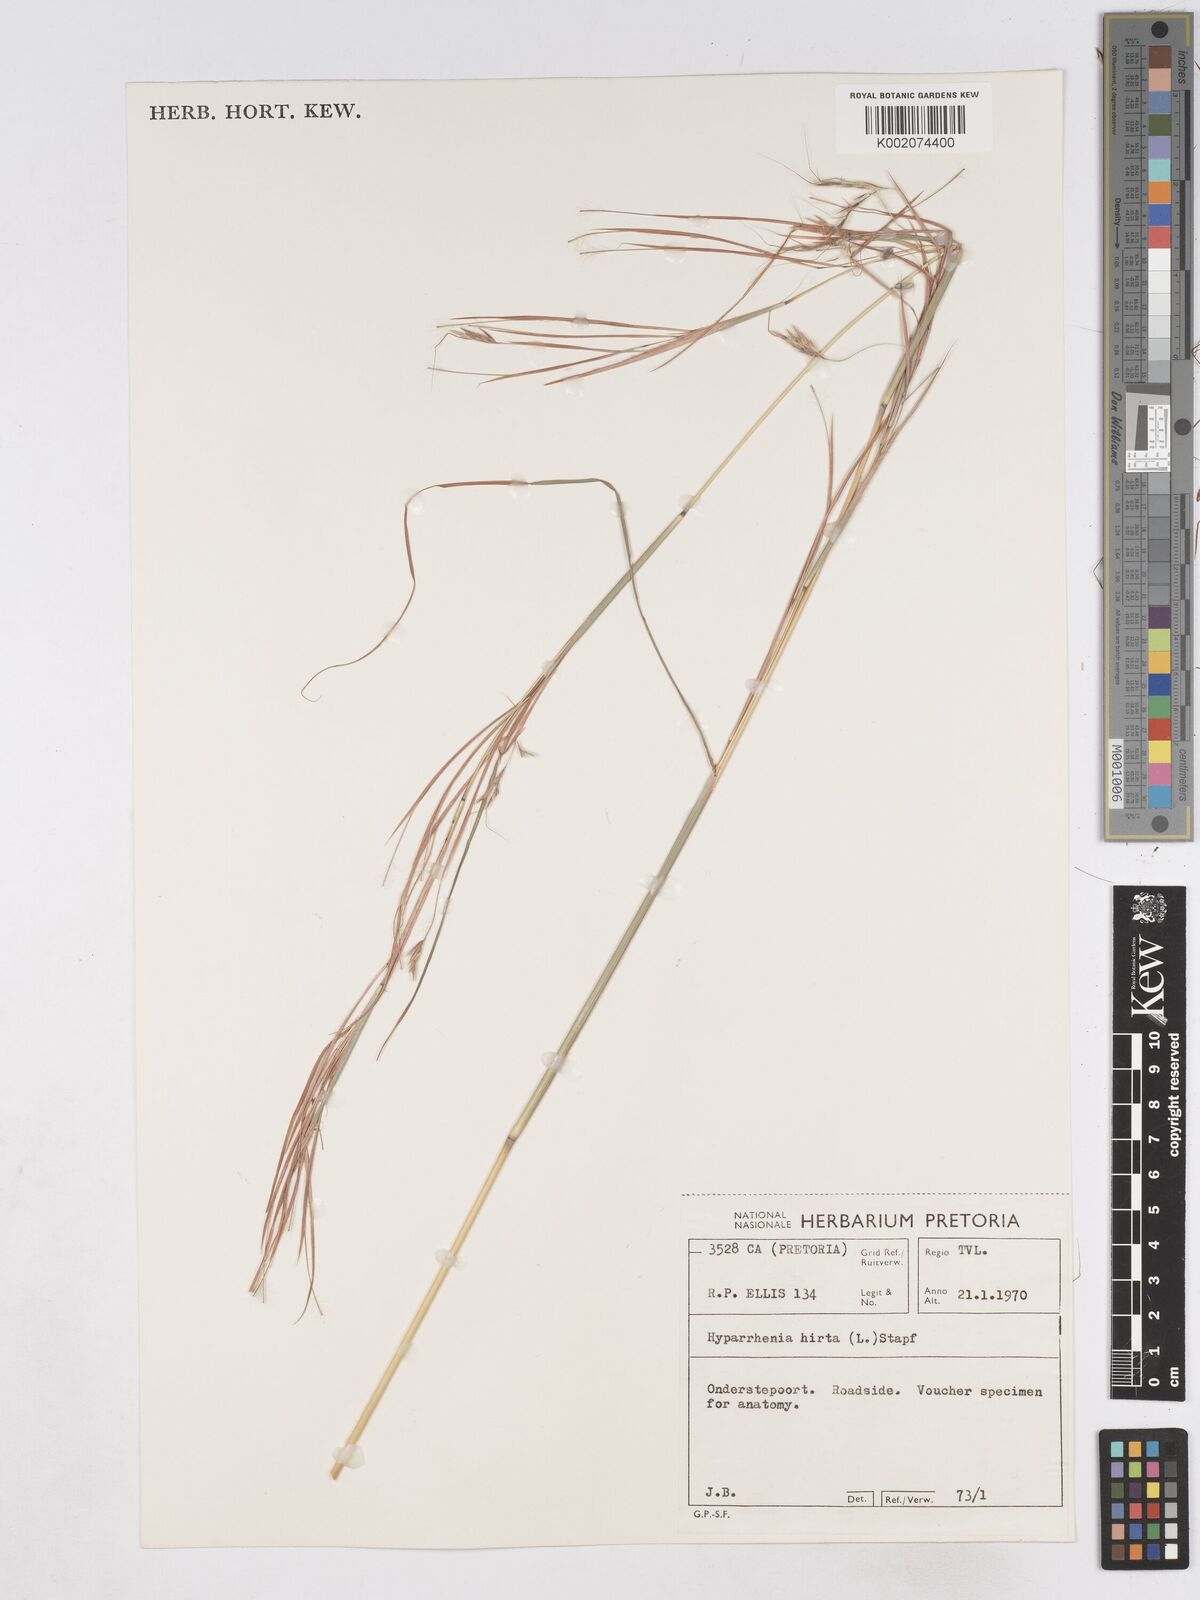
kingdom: Plantae
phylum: Tracheophyta
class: Liliopsida
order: Poales
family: Poaceae
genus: Hyparrhenia
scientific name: Hyparrhenia hirta
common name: Thatching grass
